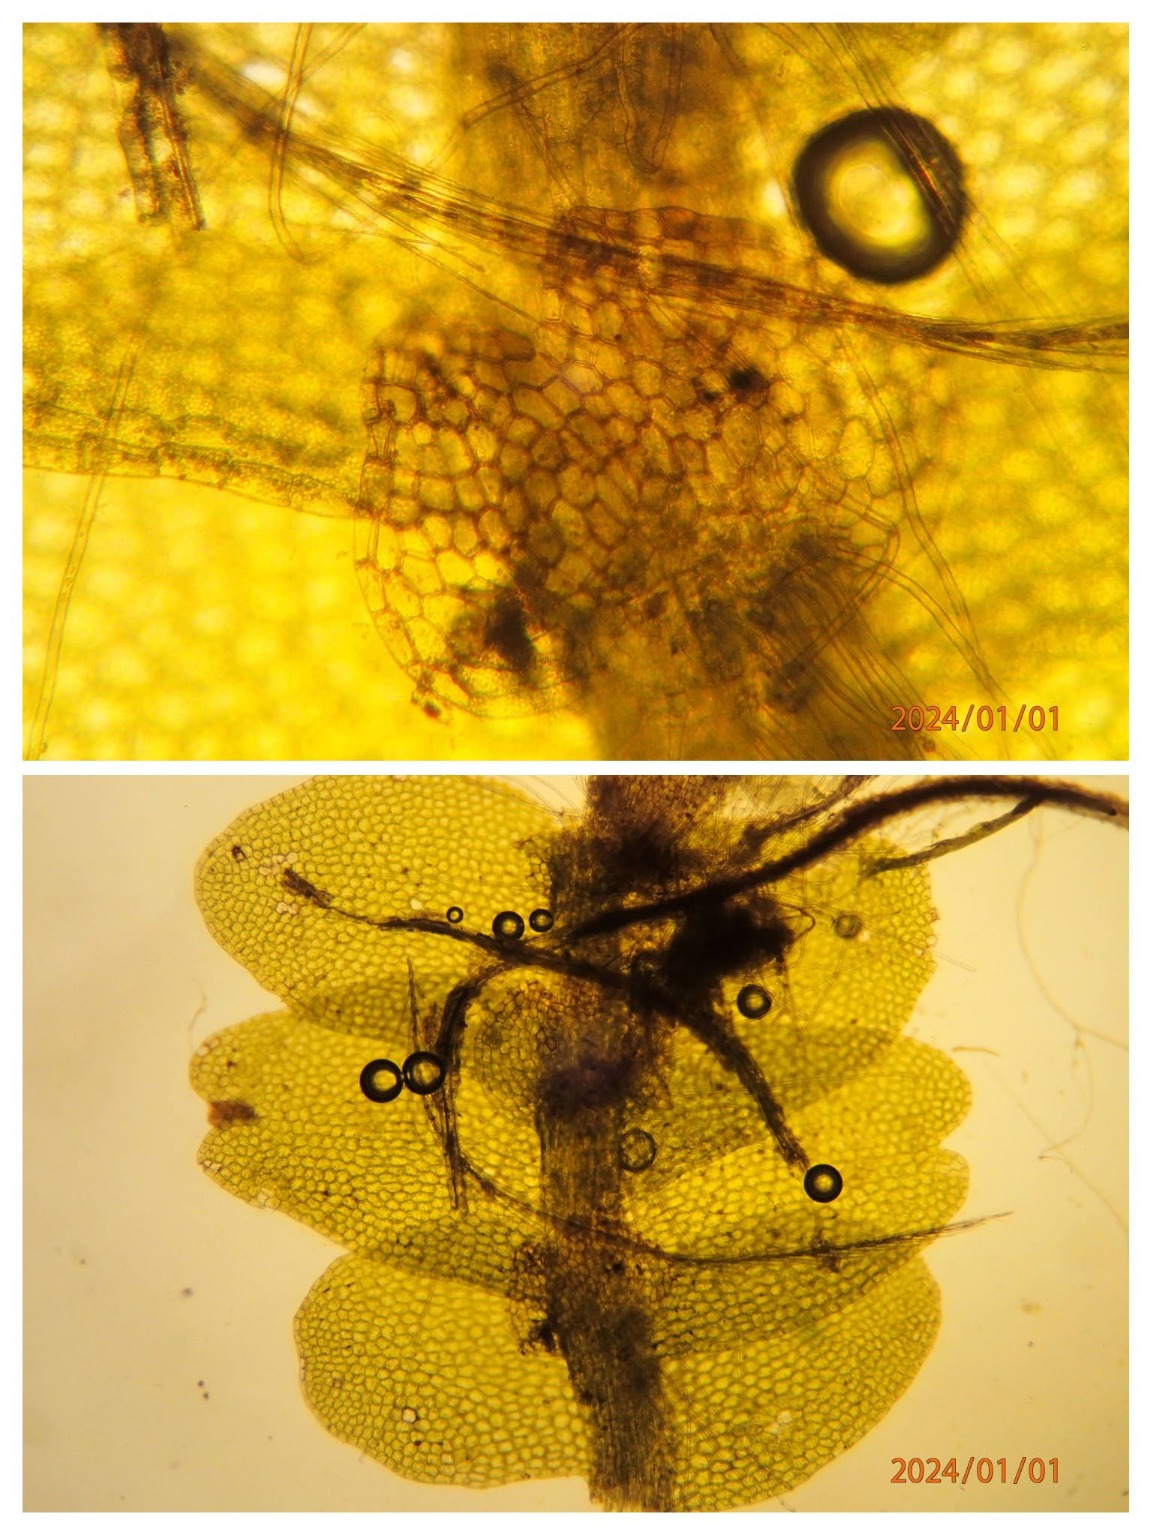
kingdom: Plantae
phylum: Marchantiophyta
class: Jungermanniopsida
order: Jungermanniales
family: Calypogeiaceae
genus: Calypogeia
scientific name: Calypogeia muelleriana
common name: Almindelig sækmos
